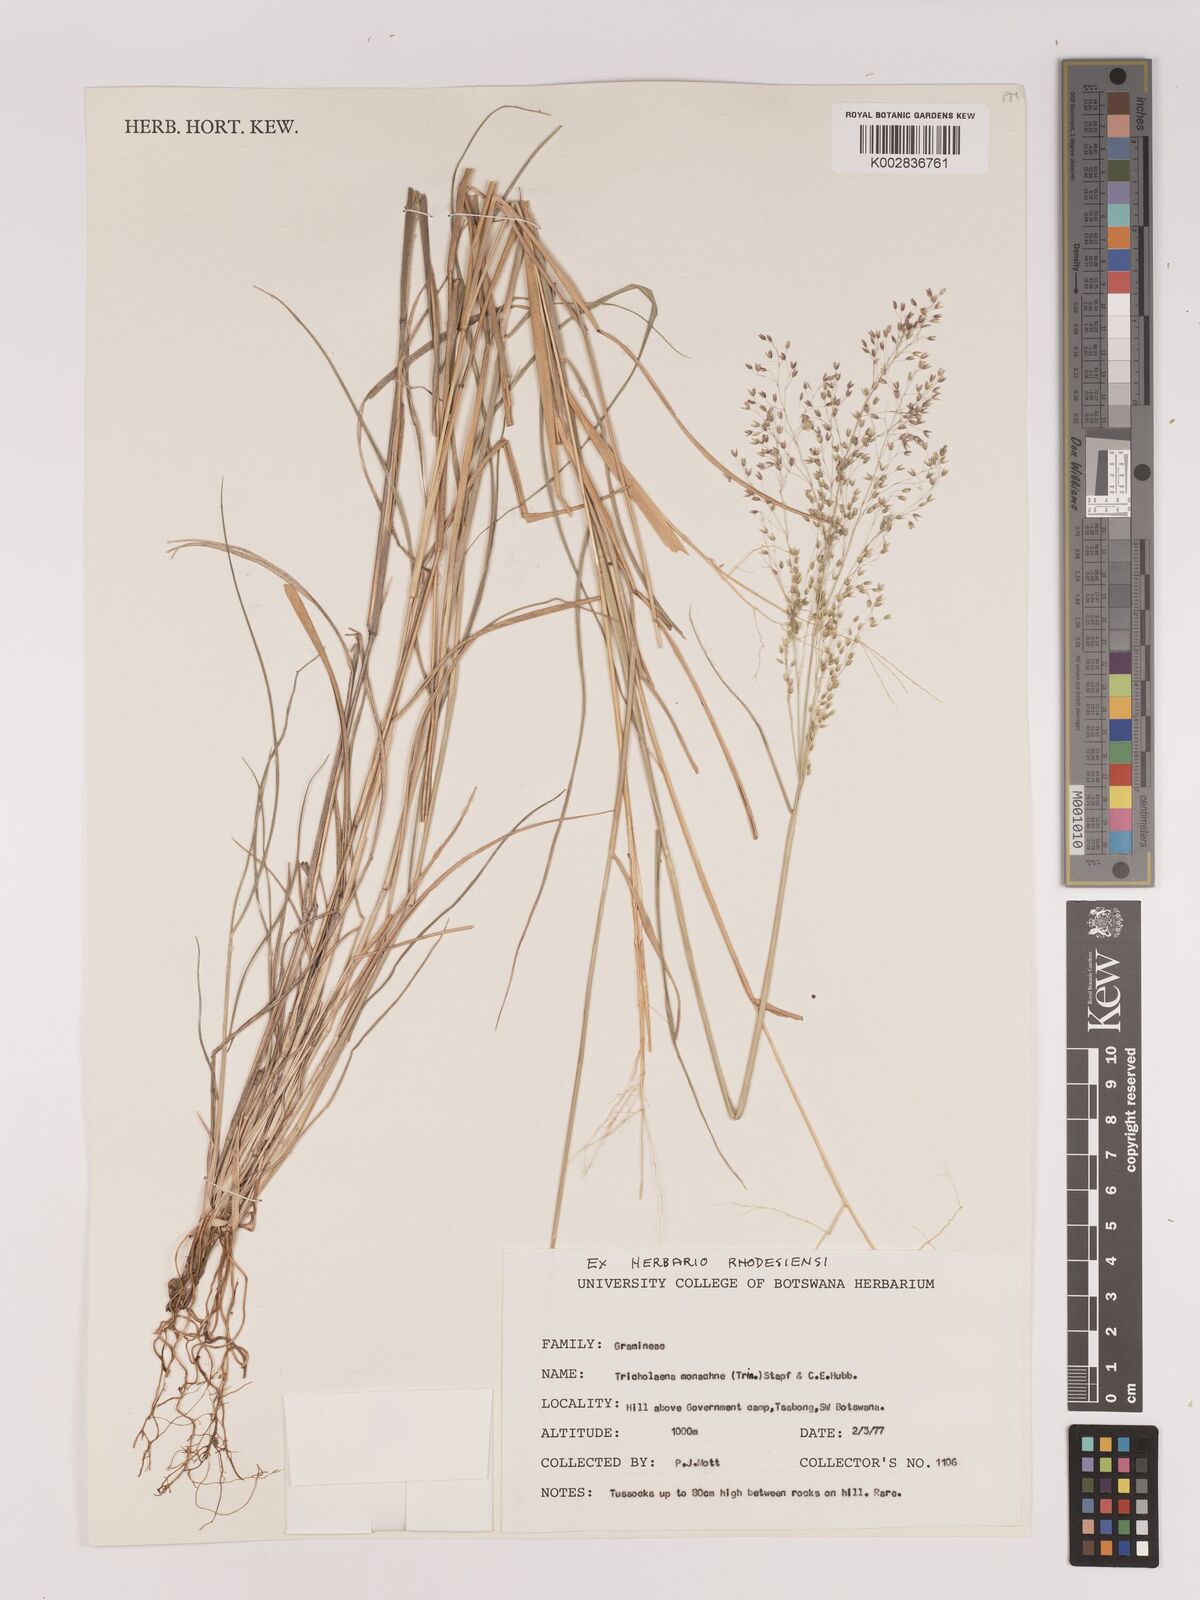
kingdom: Plantae
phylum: Tracheophyta
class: Liliopsida
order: Poales
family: Poaceae
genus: Tricholaena
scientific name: Tricholaena monachne
